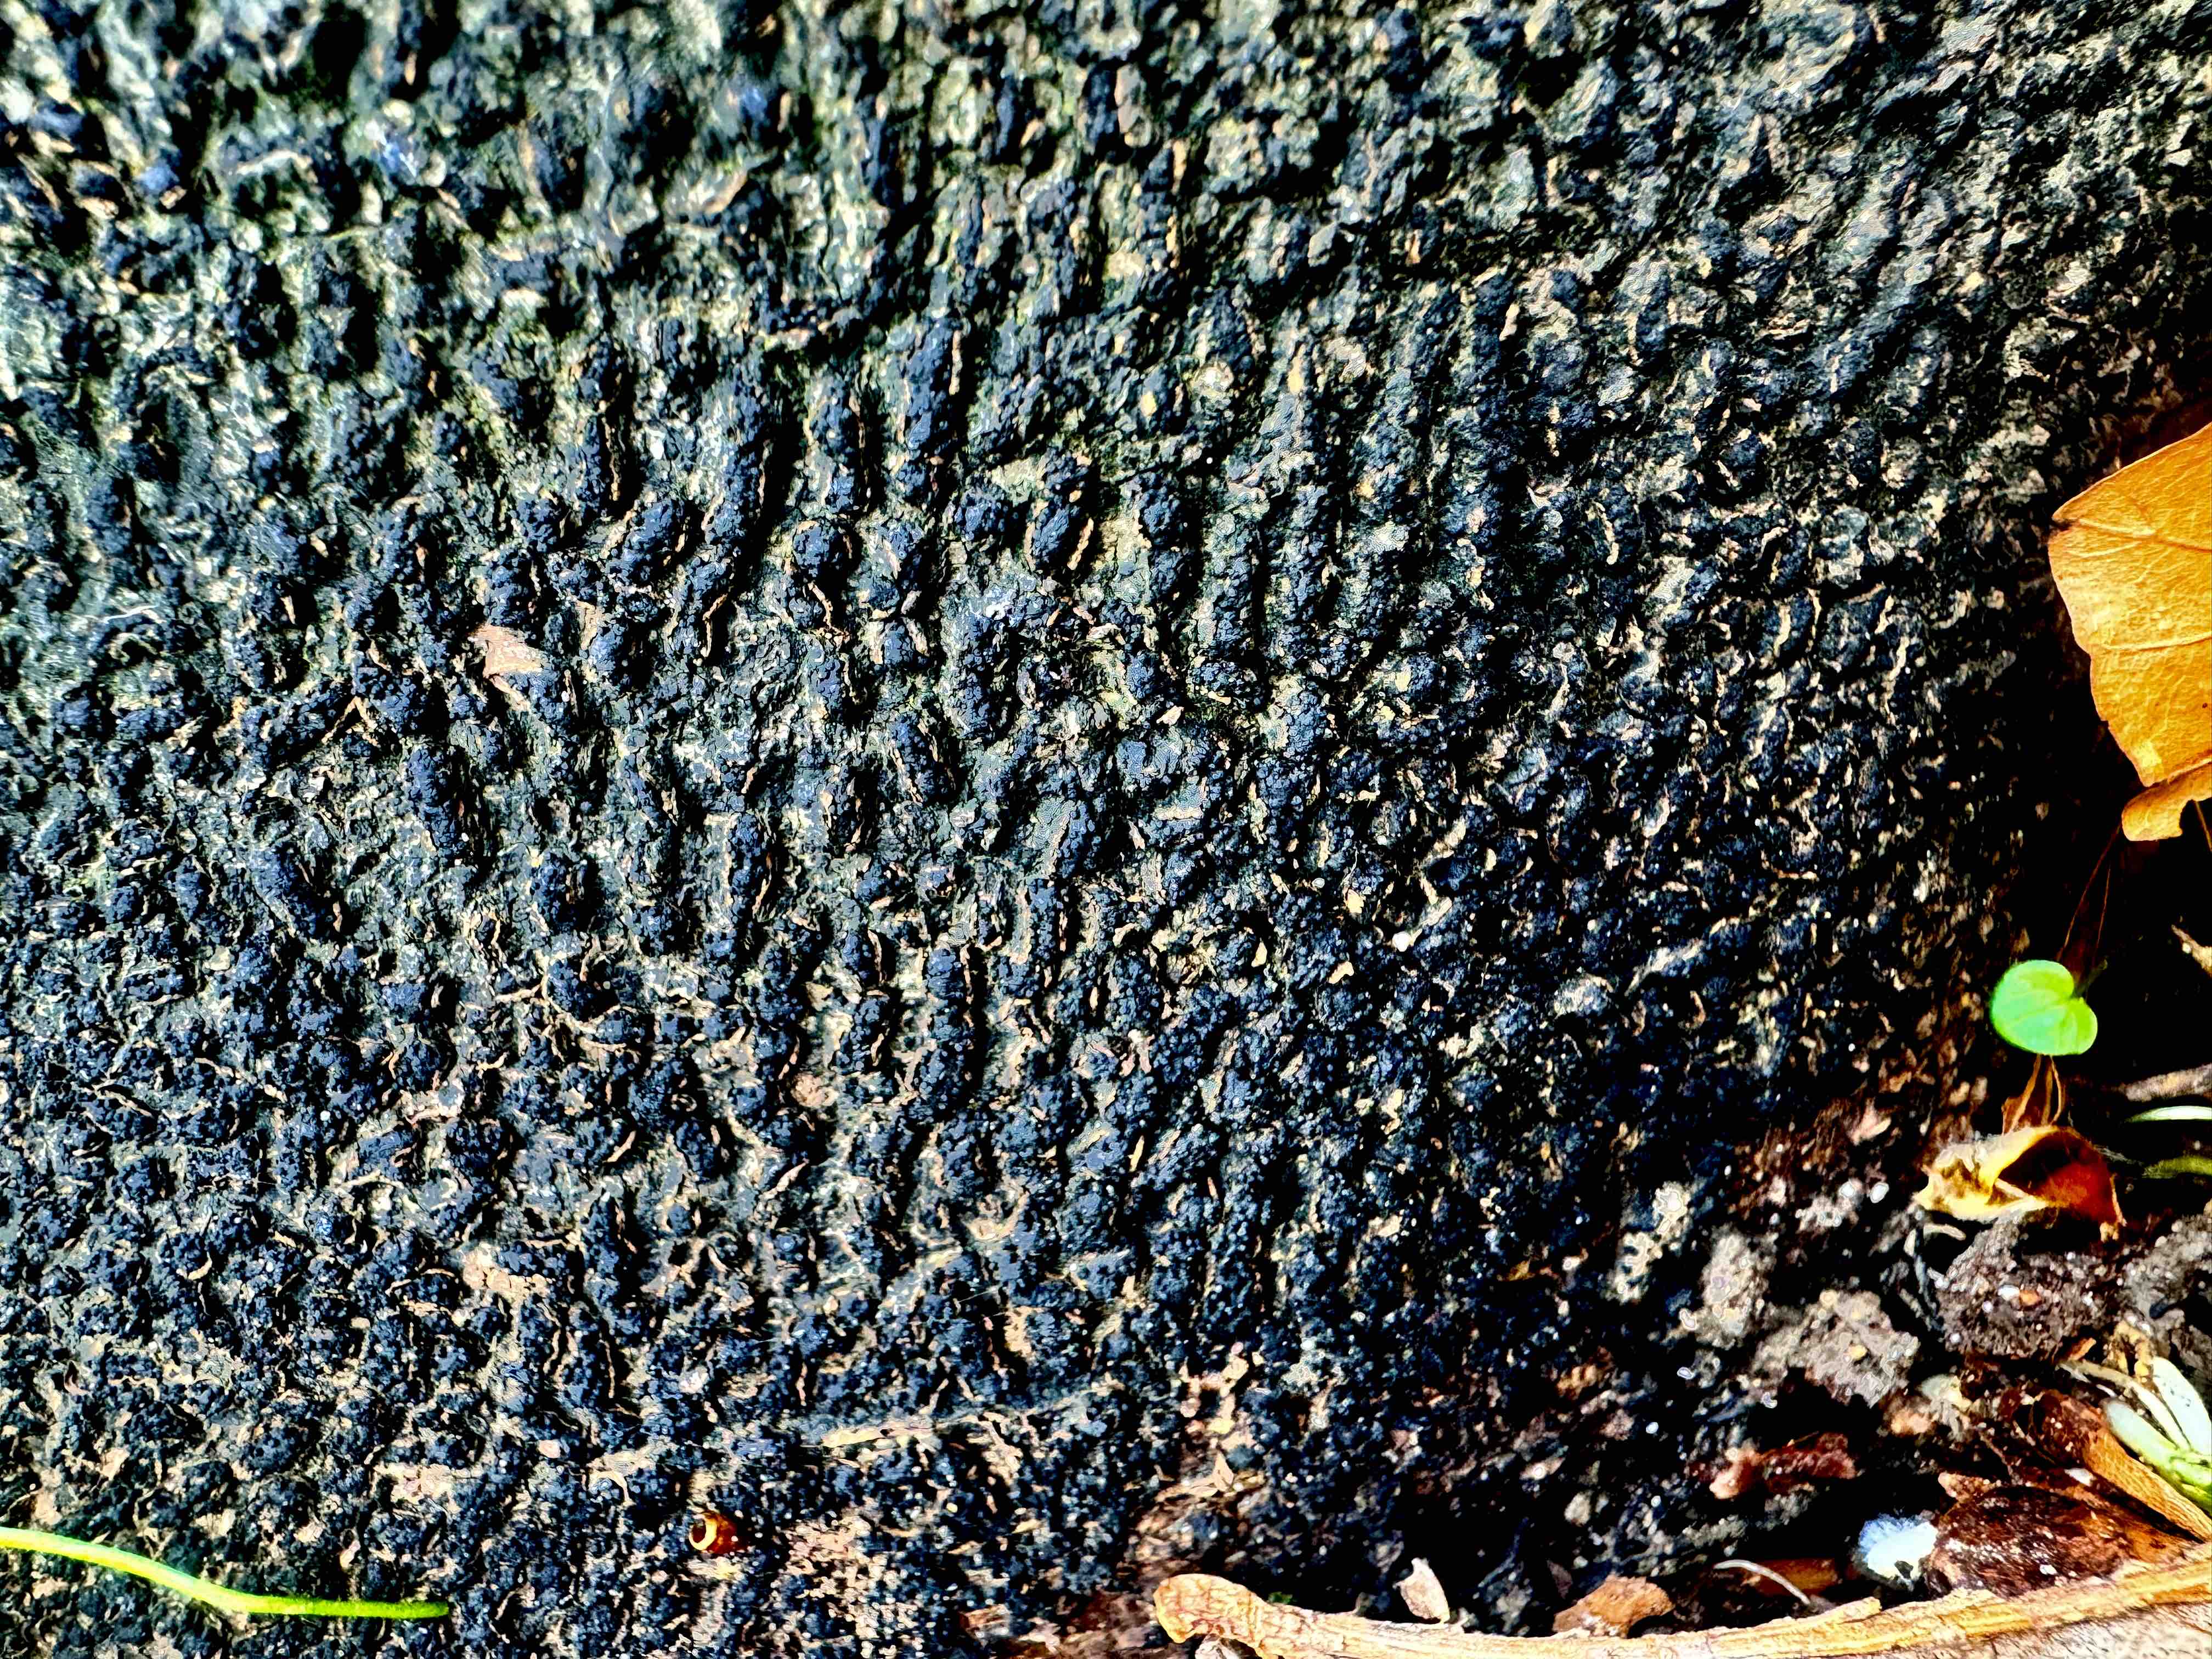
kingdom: Fungi
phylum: Ascomycota
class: Sordariomycetes
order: Xylariales
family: Melogrammataceae
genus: Melogramma
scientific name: Melogramma spiniferum
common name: bøgefod-kulhals
